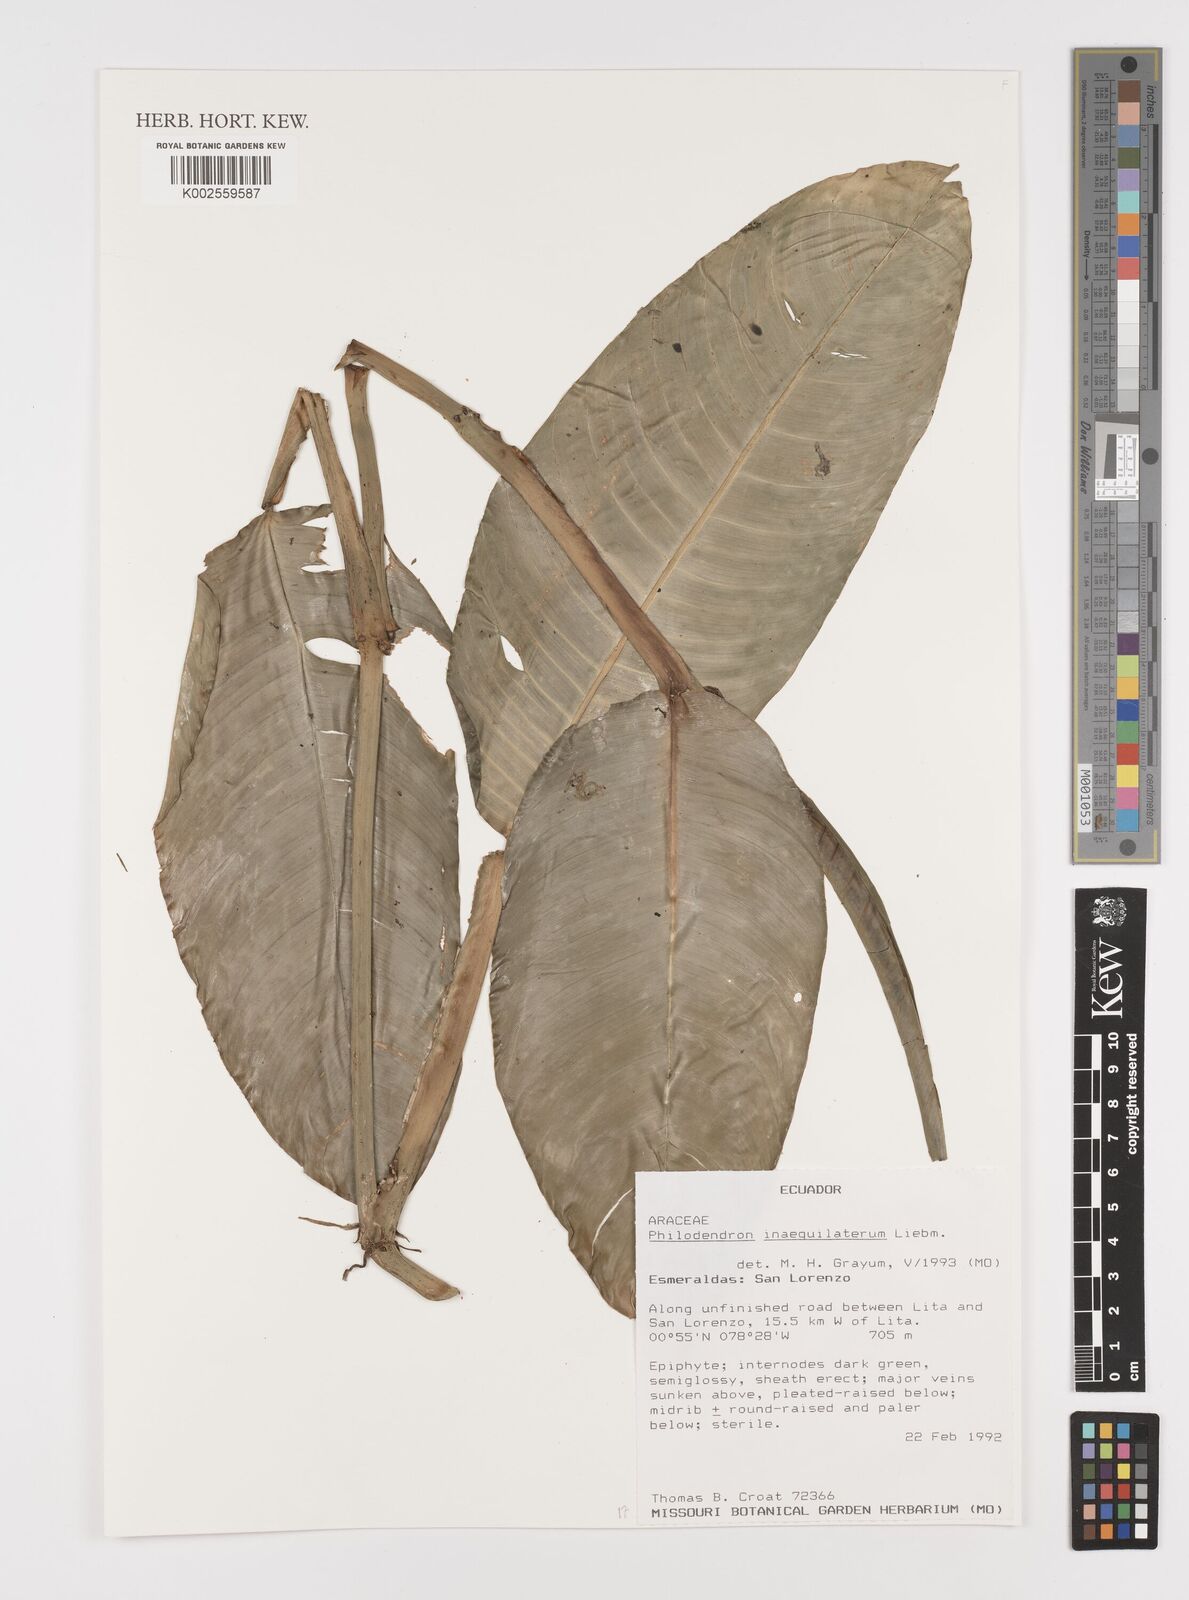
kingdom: Plantae
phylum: Tracheophyta
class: Liliopsida
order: Alismatales
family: Araceae
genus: Philodendron
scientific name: Philodendron inaequilaterum
